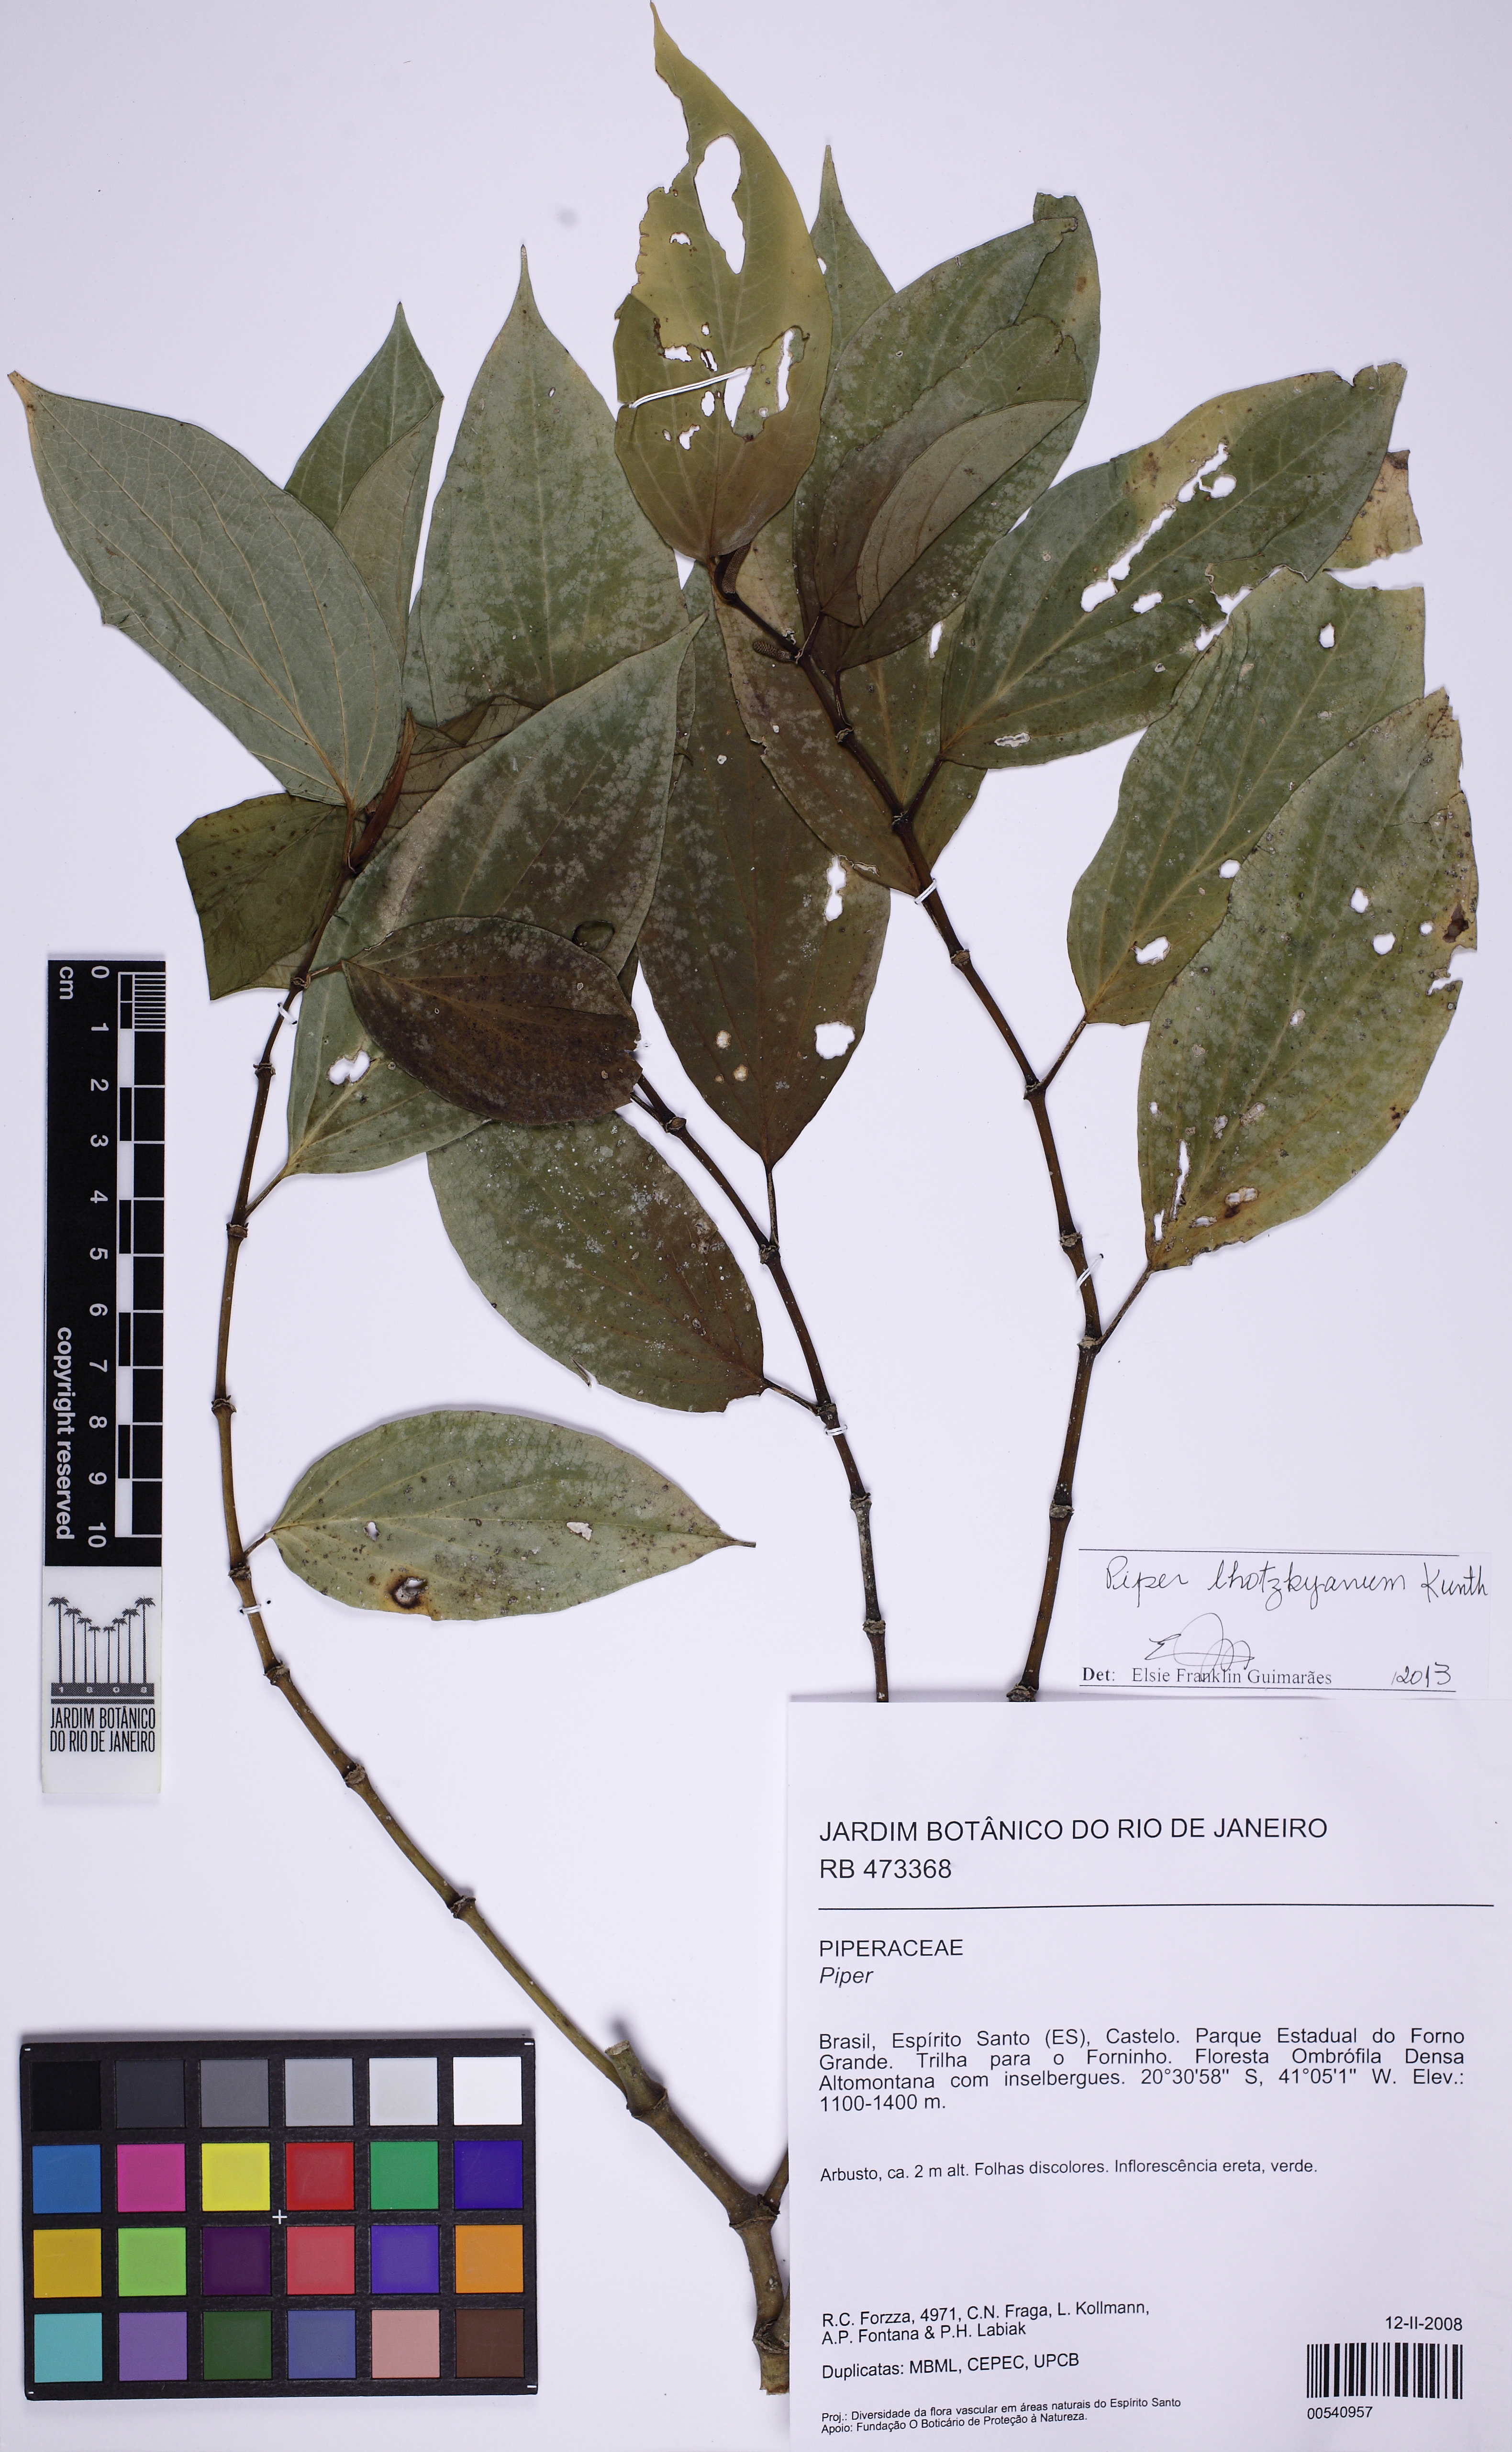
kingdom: Plantae
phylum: Tracheophyta
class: Magnoliopsida
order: Piperales
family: Piperaceae
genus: Piper
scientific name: Piper lhotzkyanum
